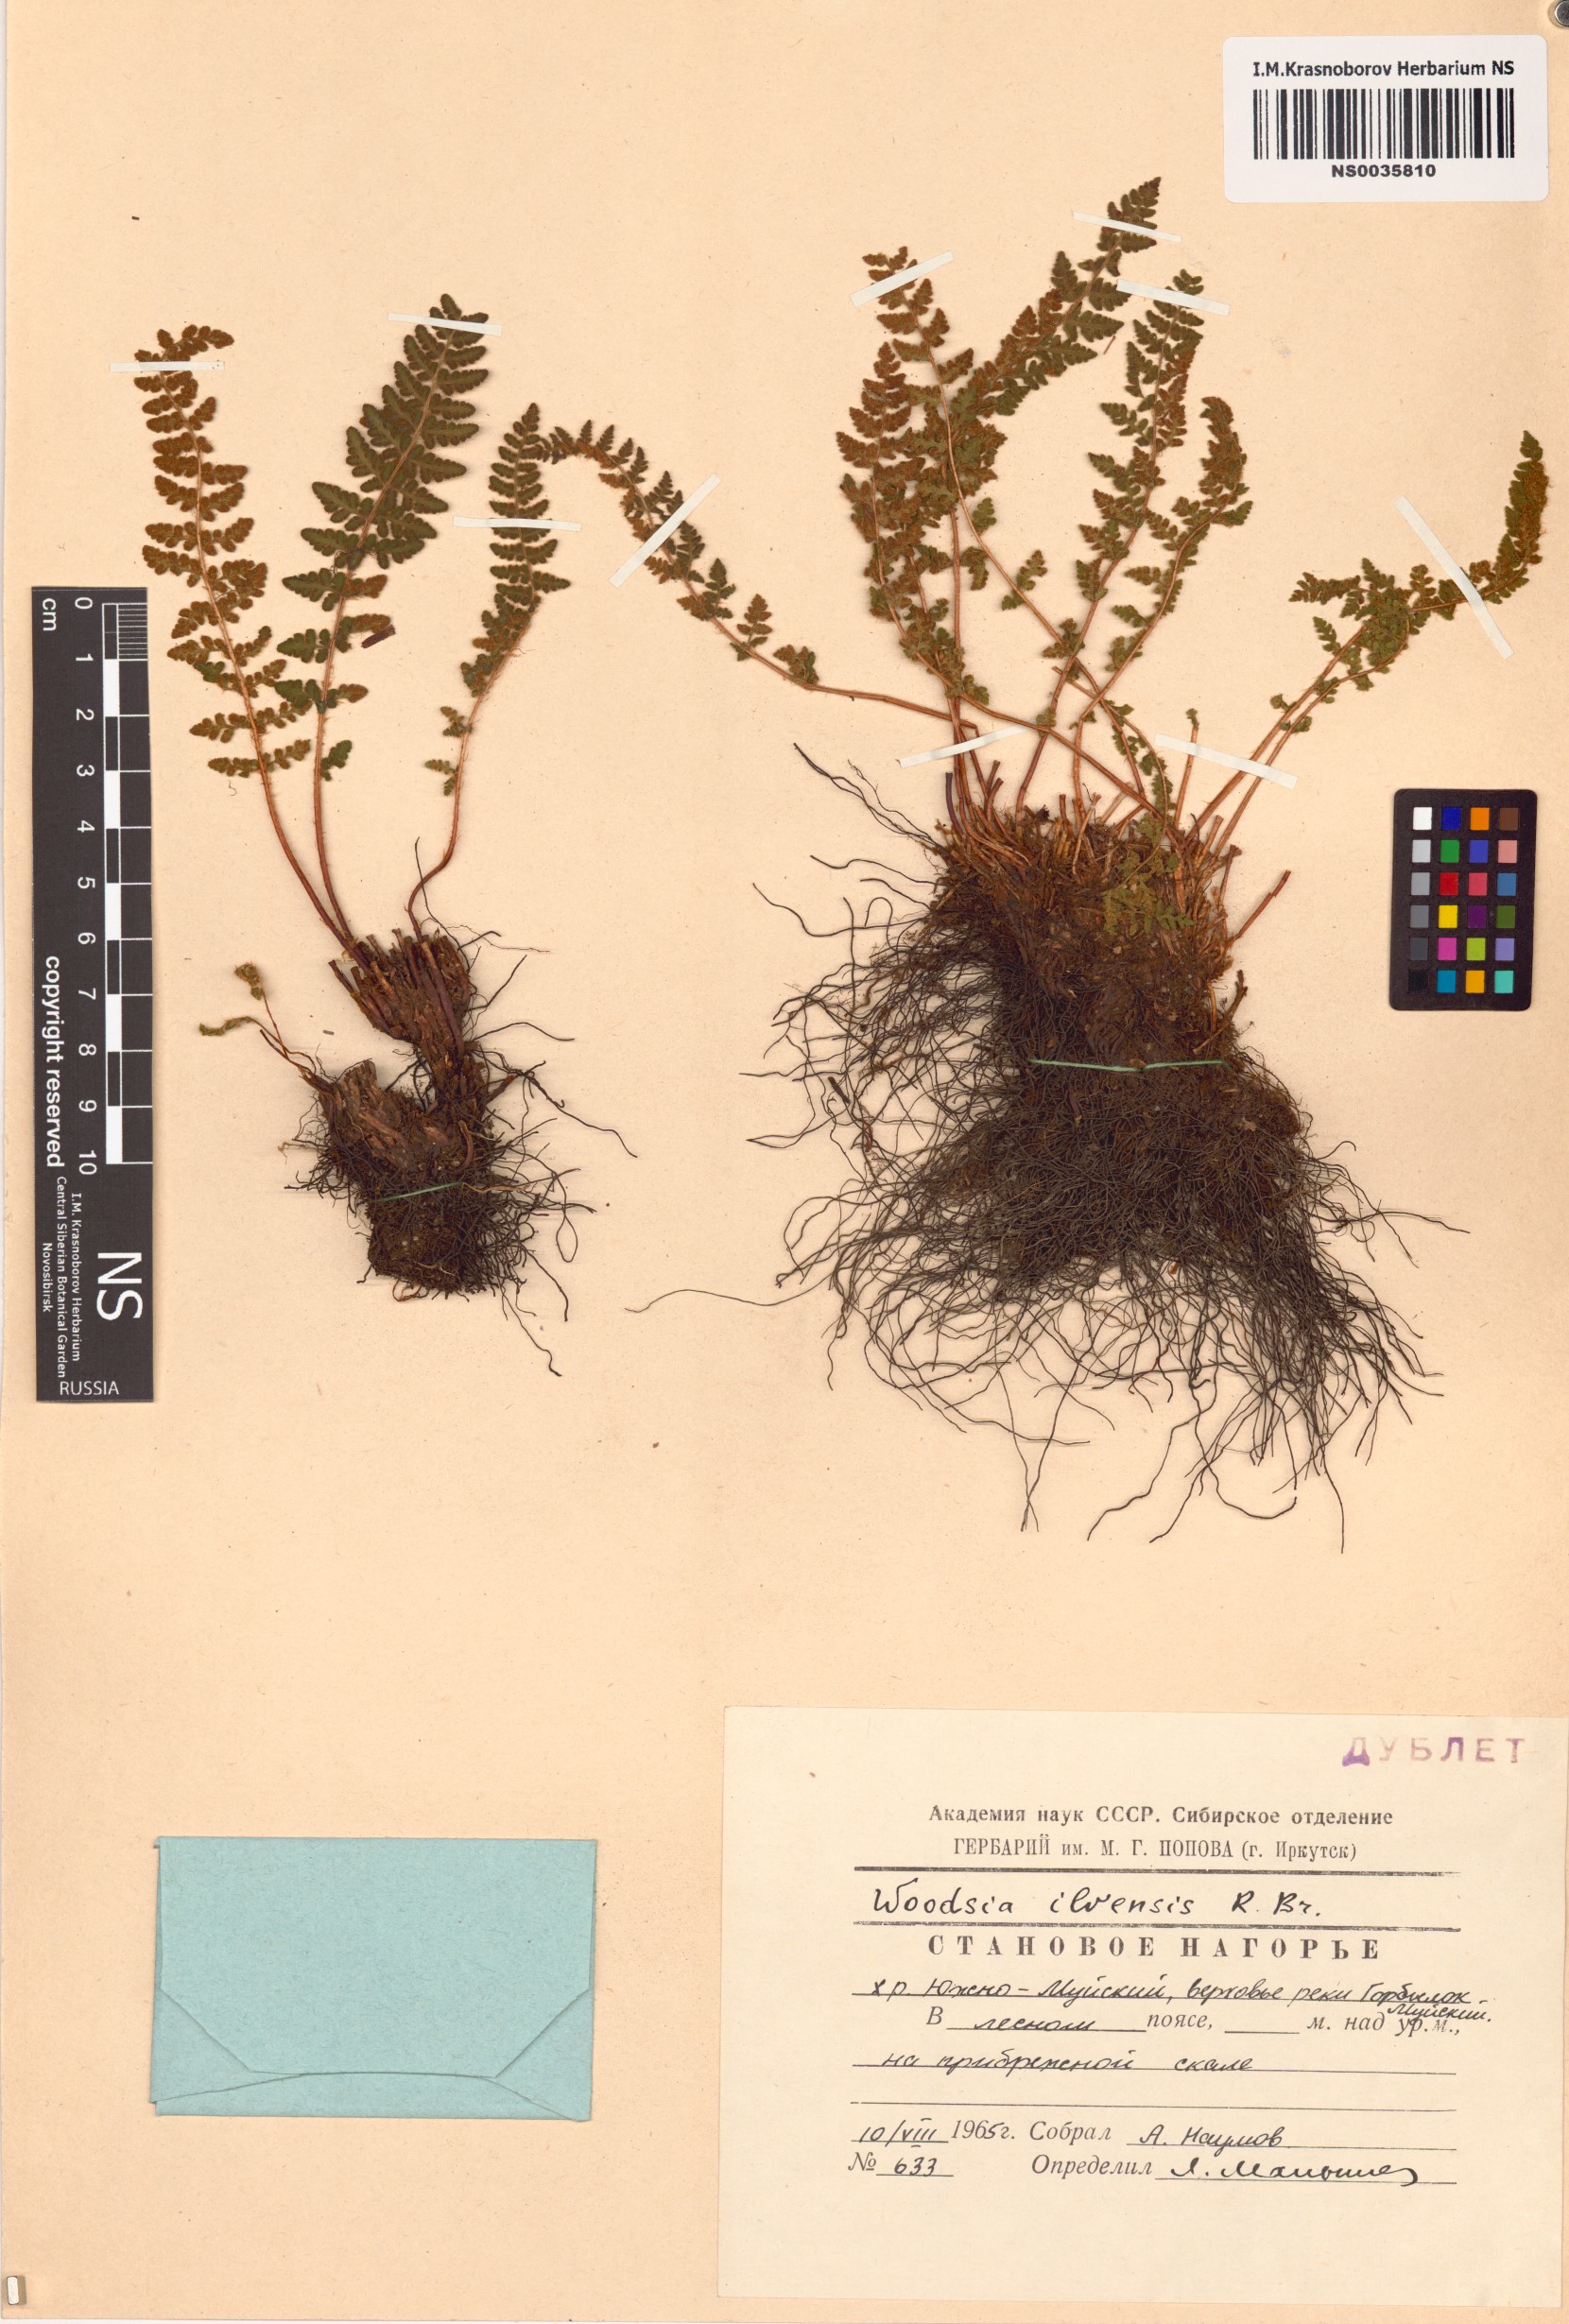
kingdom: Plantae
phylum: Tracheophyta
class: Polypodiopsida
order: Polypodiales
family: Woodsiaceae
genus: Woodsia
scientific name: Woodsia ilvensis
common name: Fragrant woodsia
